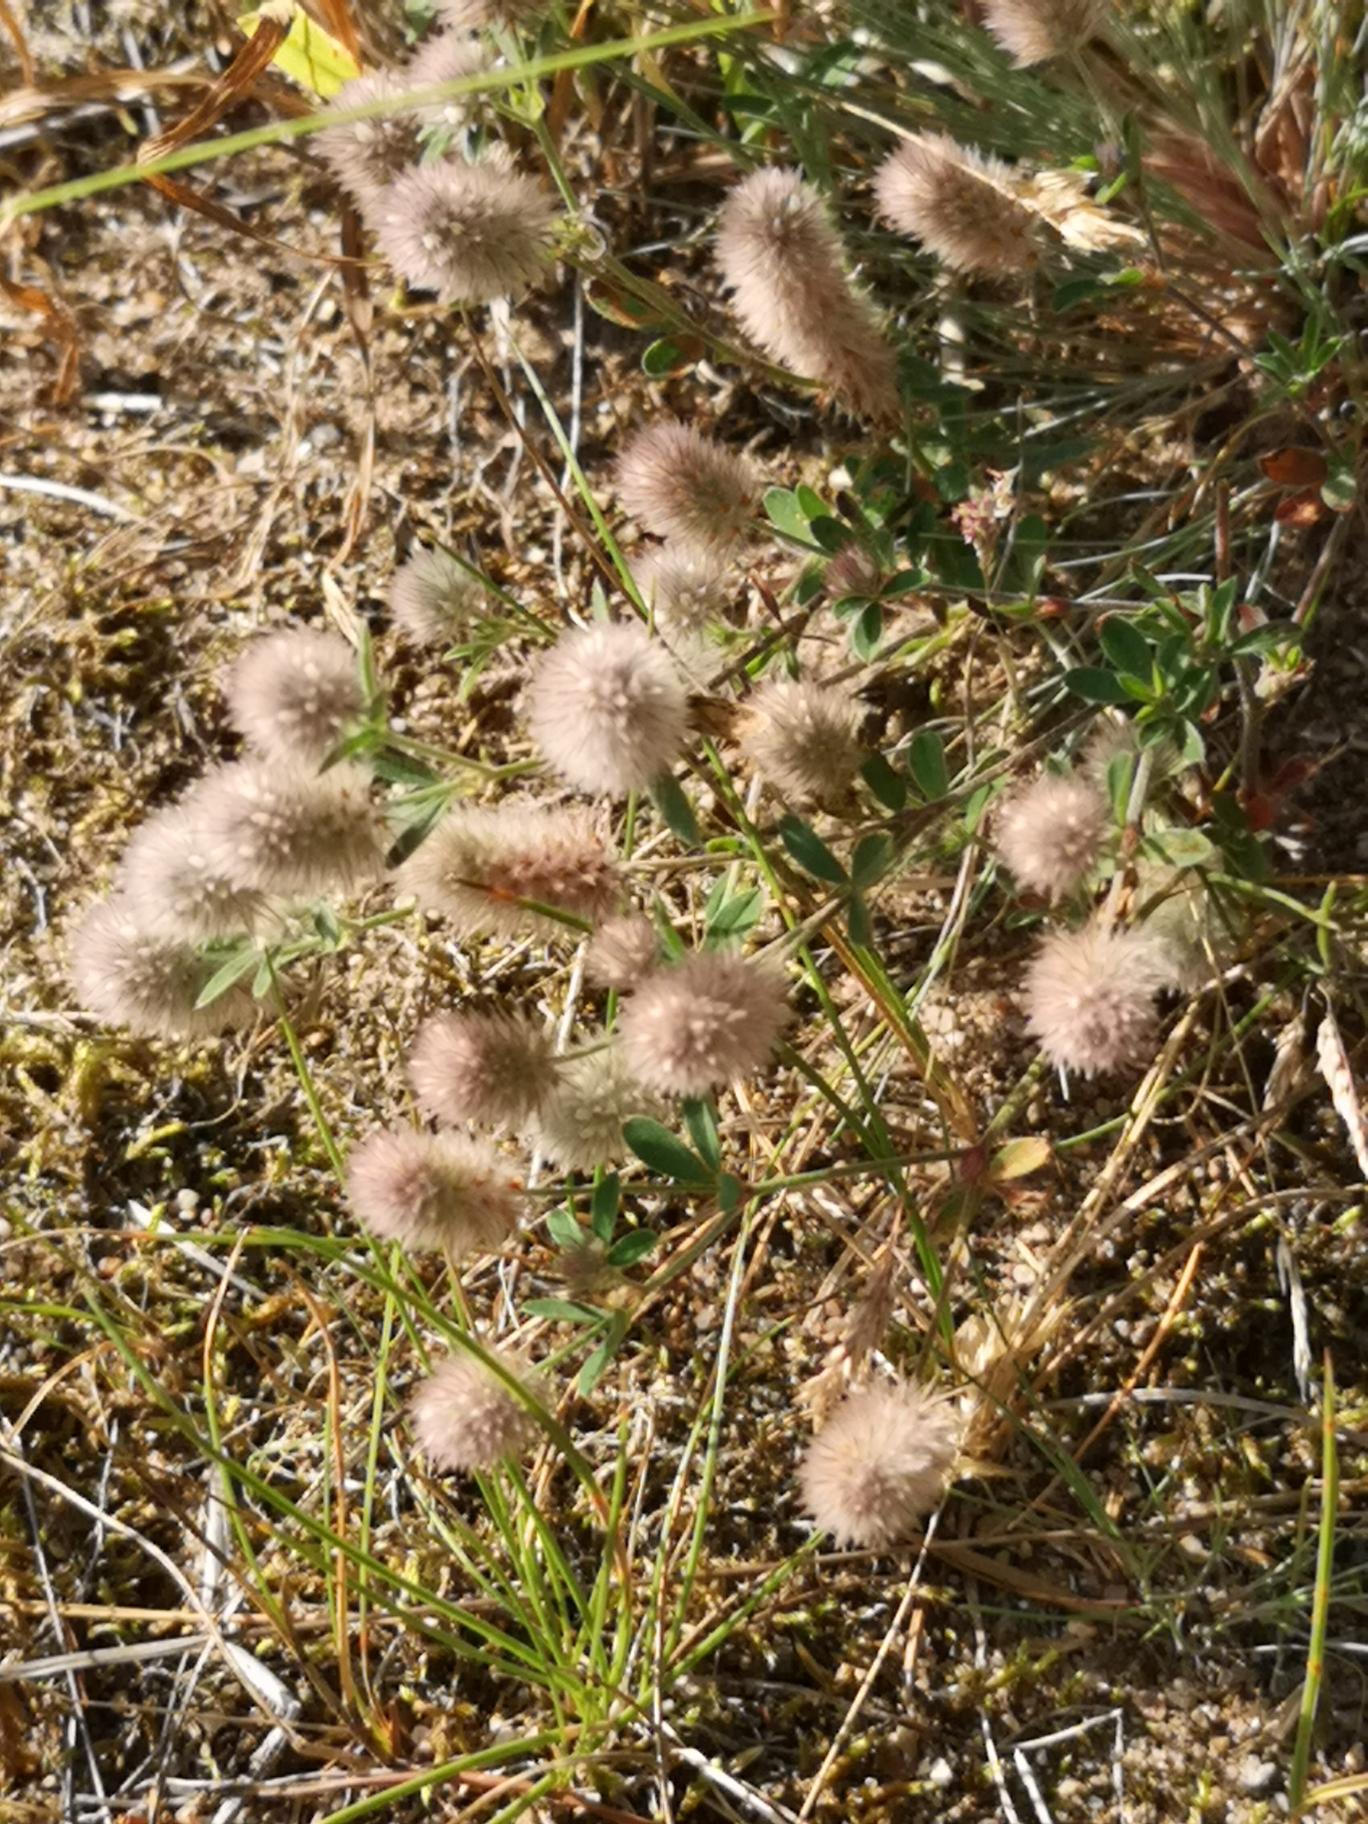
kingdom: Plantae
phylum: Tracheophyta
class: Magnoliopsida
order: Fabales
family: Fabaceae
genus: Trifolium
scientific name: Trifolium arvense
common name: Hare-kløver
